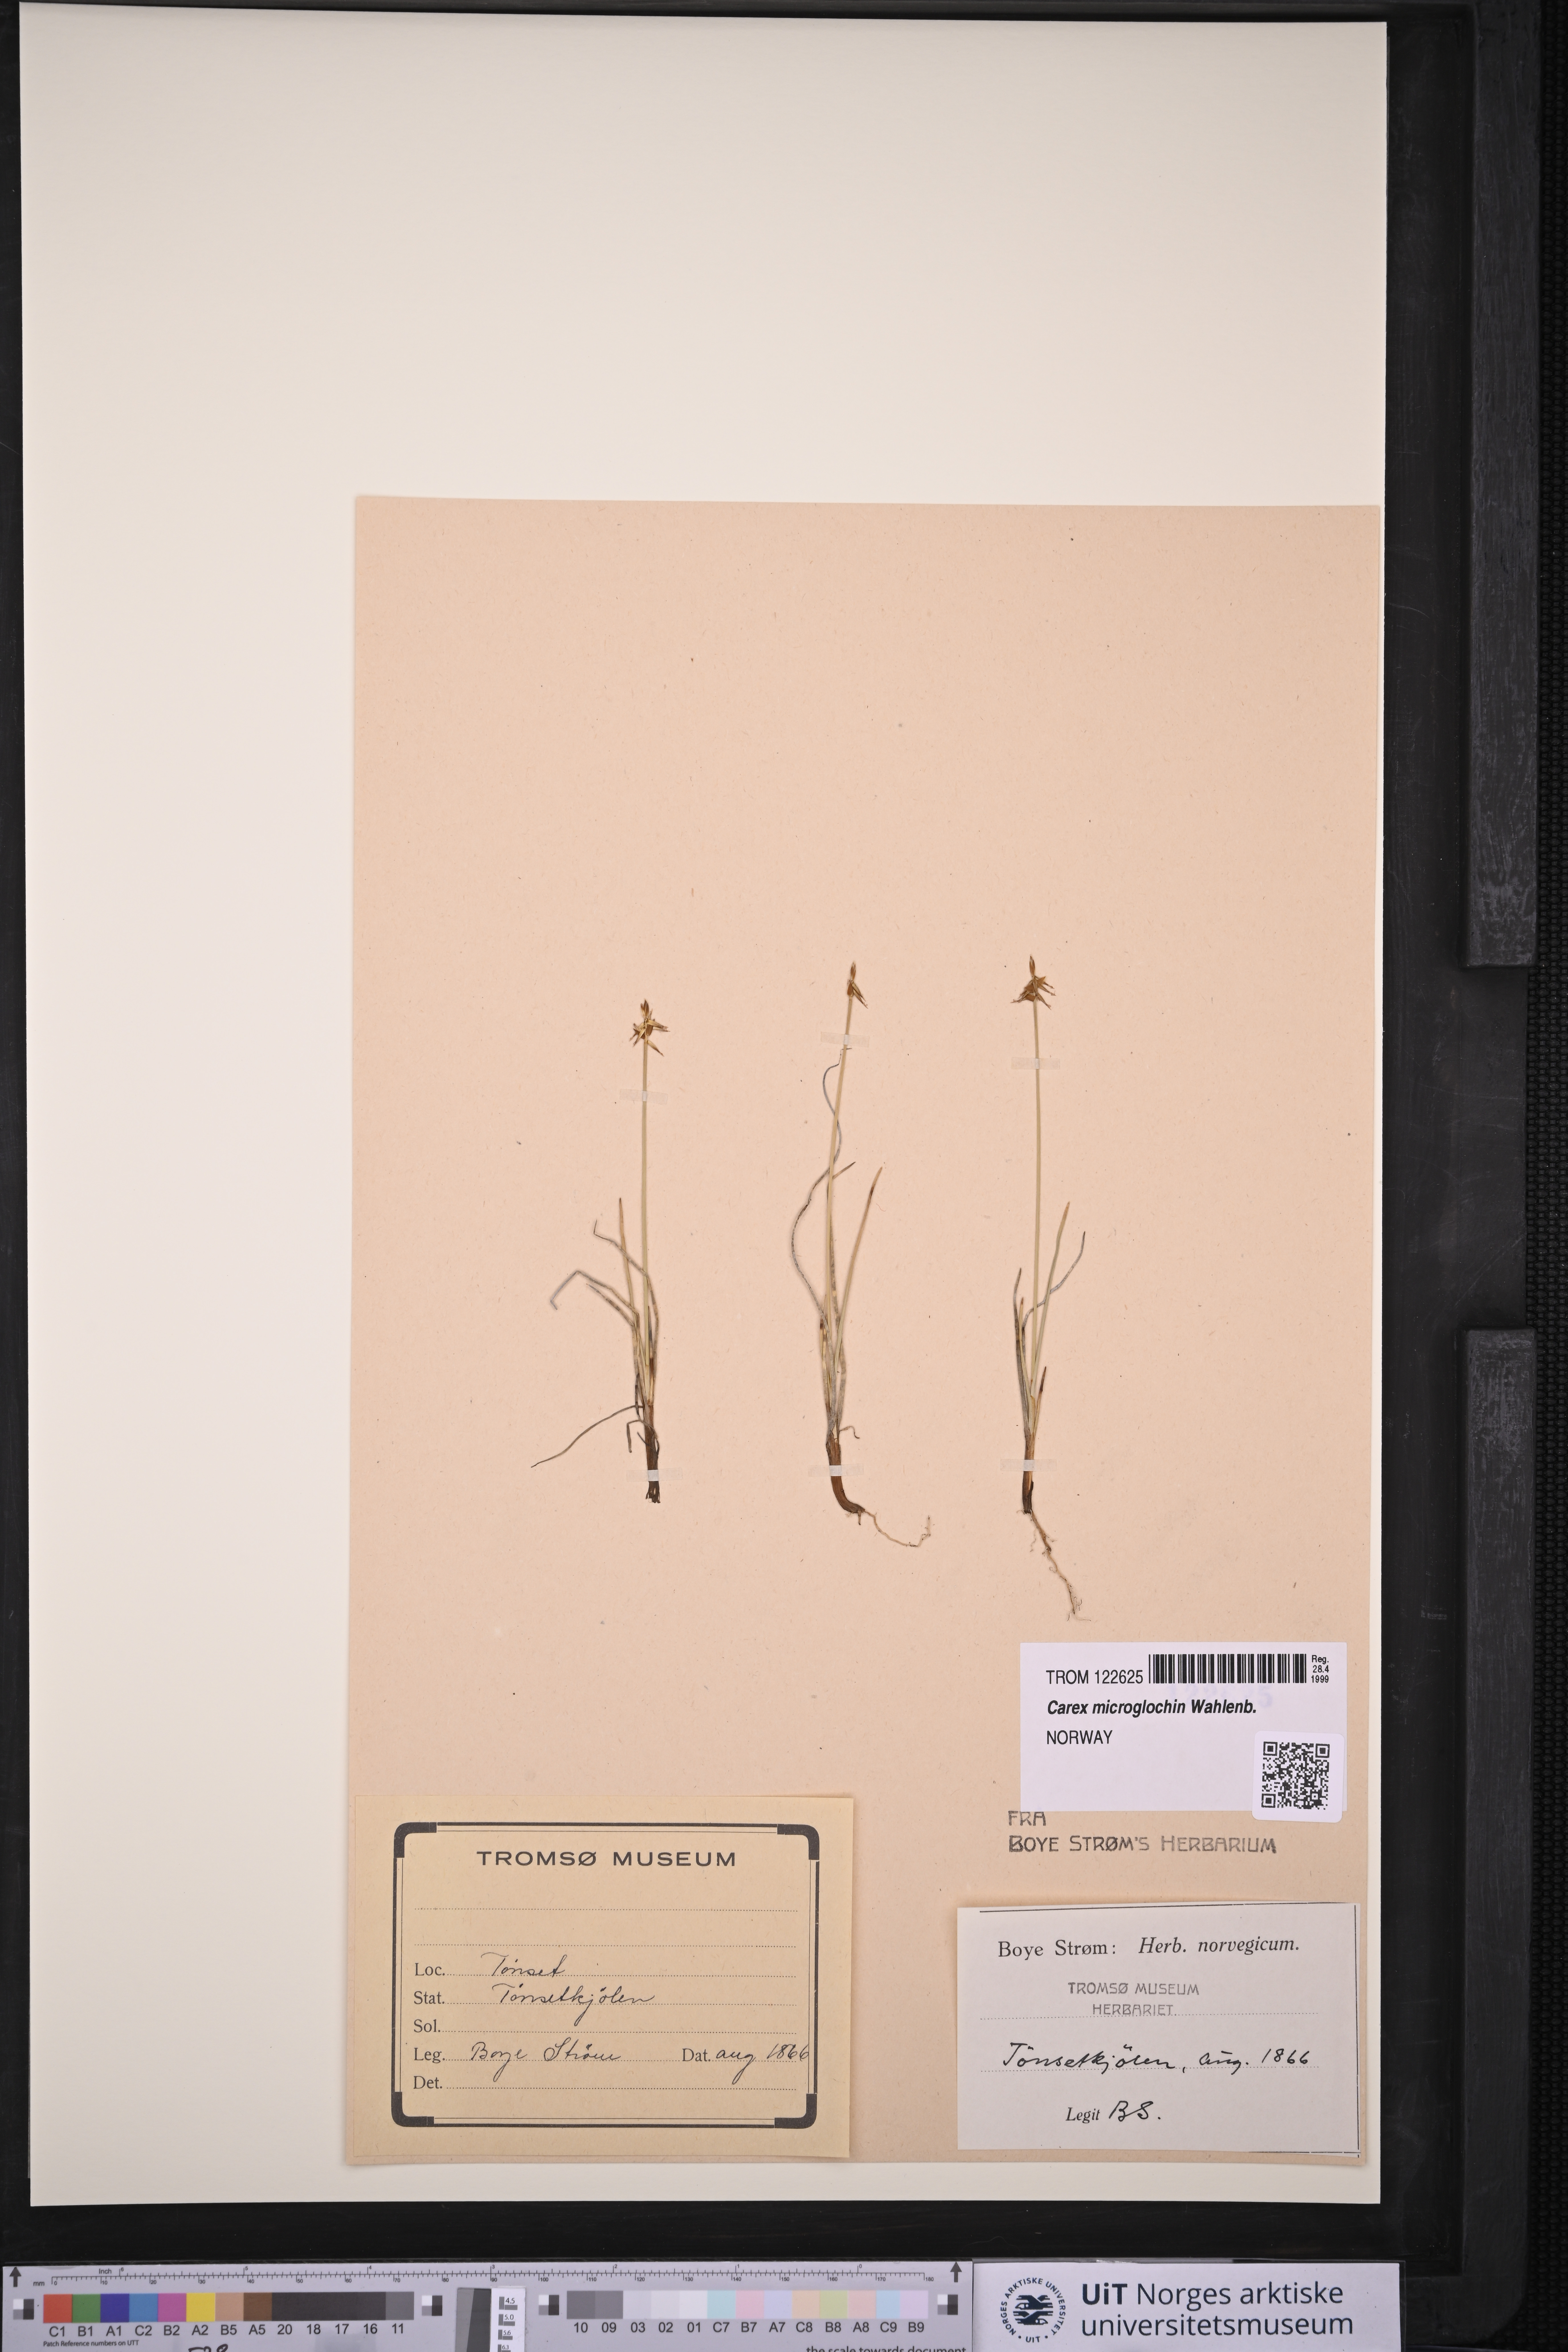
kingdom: Plantae
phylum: Tracheophyta
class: Liliopsida
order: Poales
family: Cyperaceae
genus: Carex
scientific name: Carex microglochin
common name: Bristle sedge
